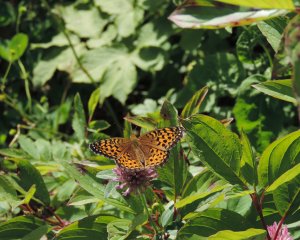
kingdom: Animalia
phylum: Arthropoda
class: Insecta
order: Lepidoptera
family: Nymphalidae
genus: Speyeria
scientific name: Speyeria atlantis
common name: Atlantis Fritillary
